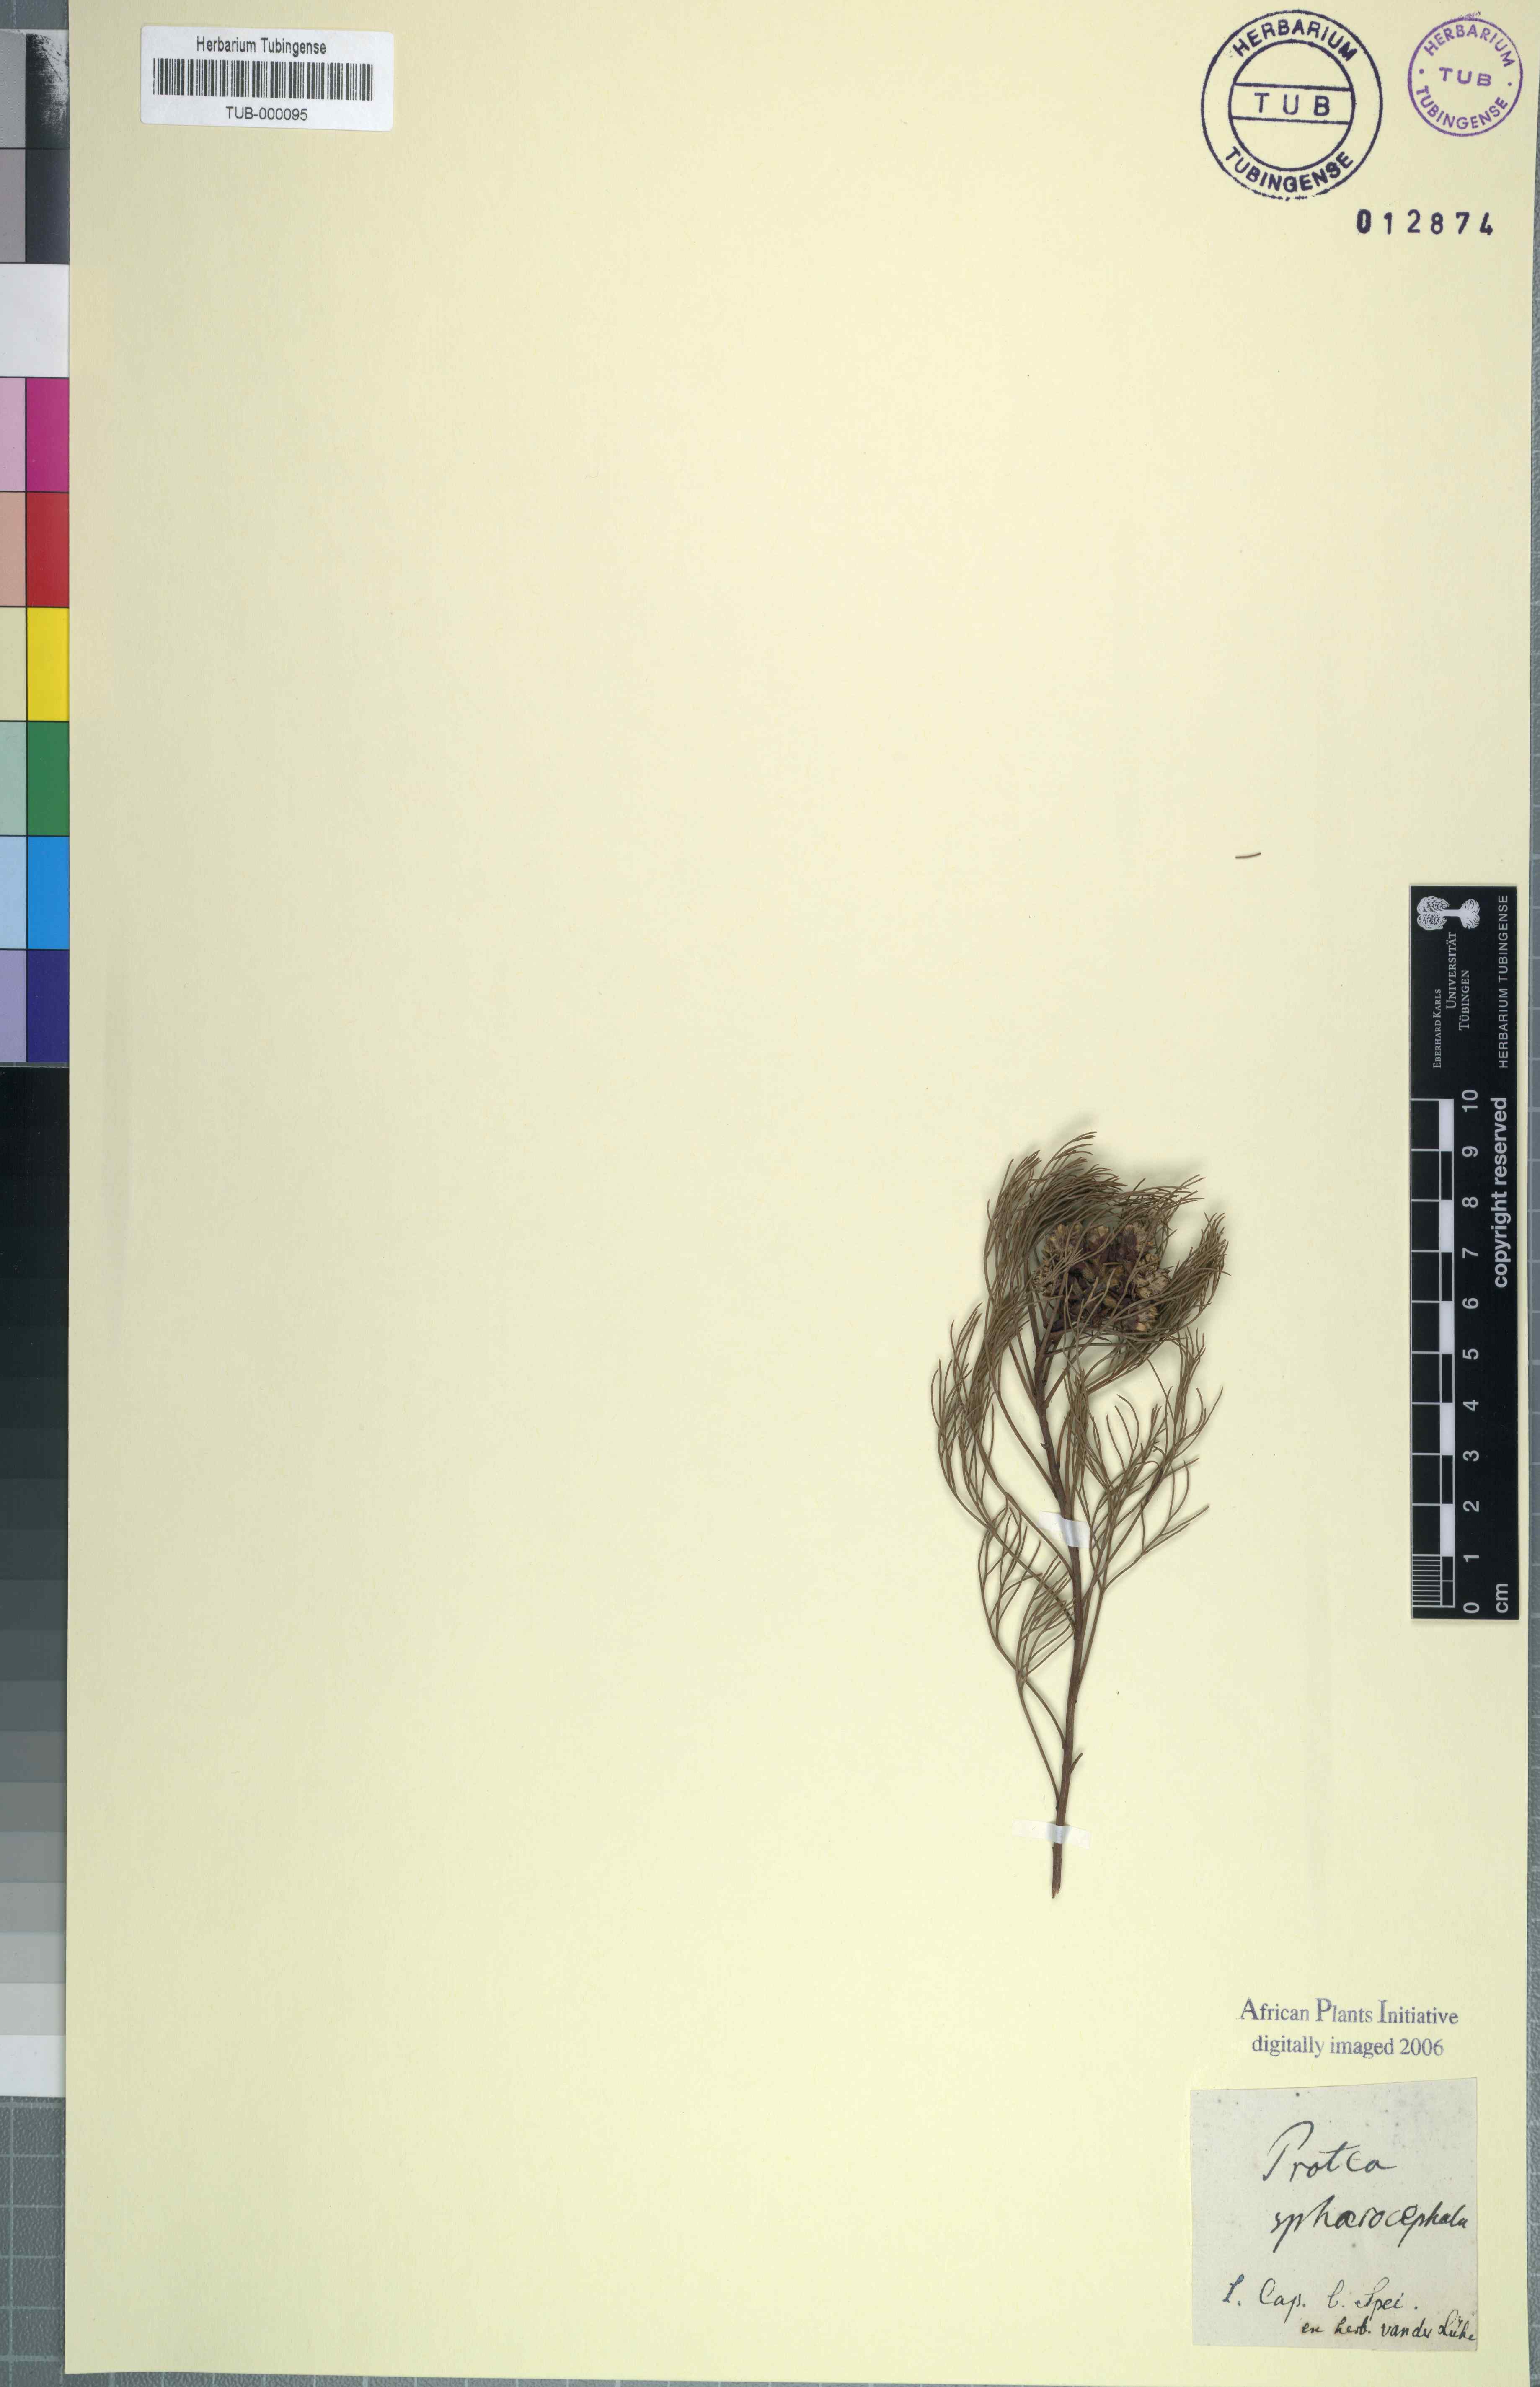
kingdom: Plantae
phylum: Tracheophyta
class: Magnoliopsida
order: Proteales
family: Proteaceae
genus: Mimetes
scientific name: Mimetes
